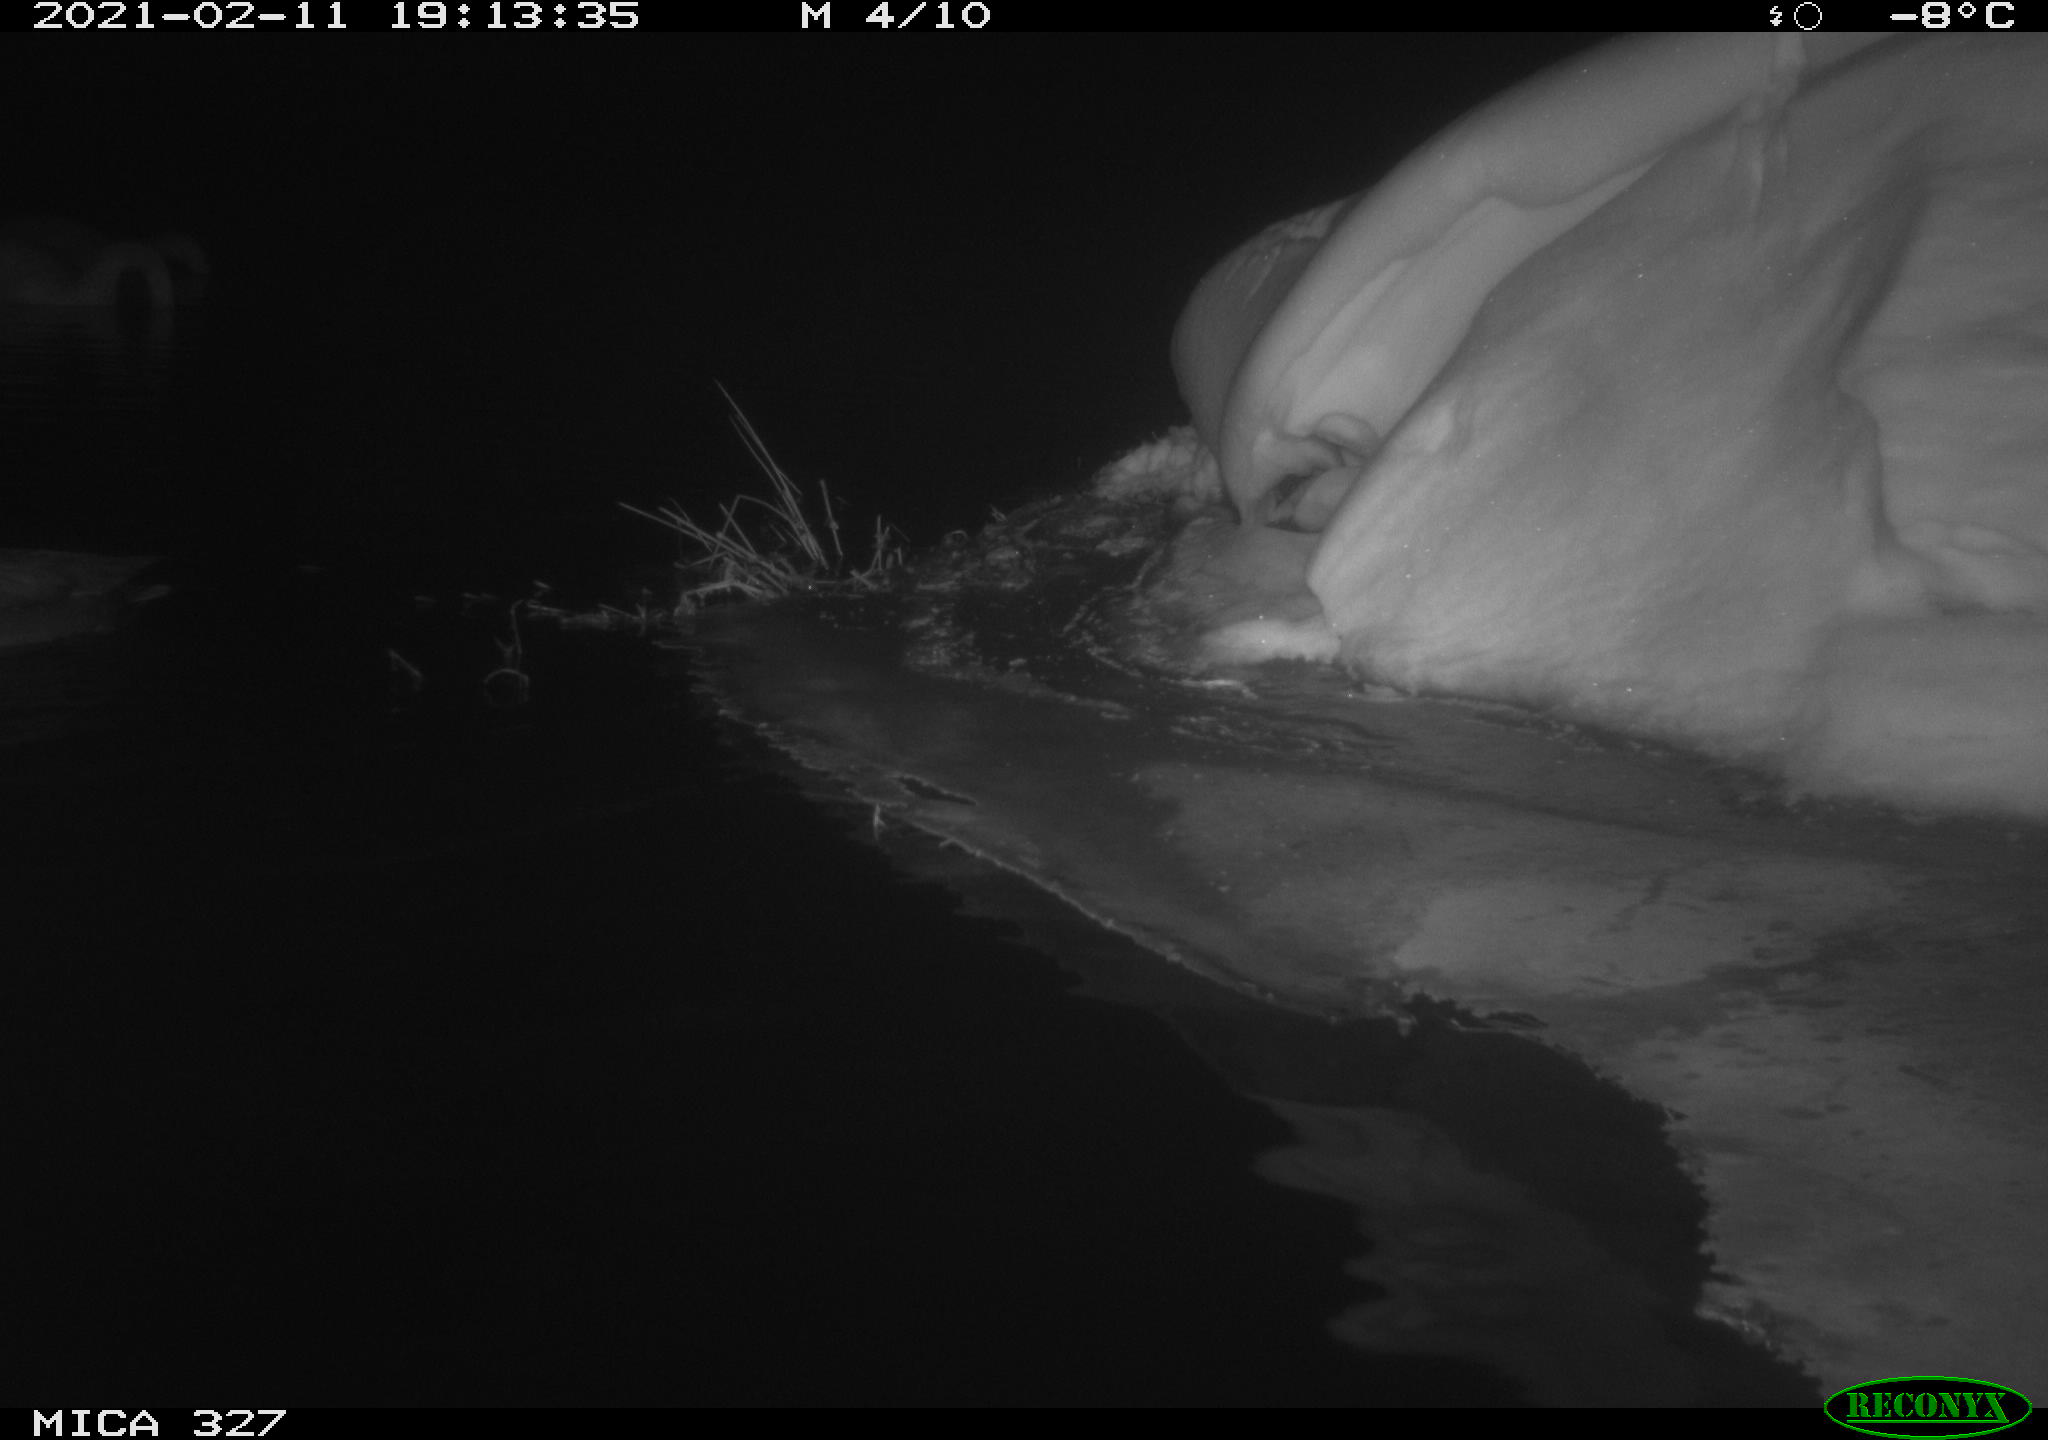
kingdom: Animalia
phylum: Chordata
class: Aves
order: Anseriformes
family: Anatidae
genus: Cygnus
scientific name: Cygnus olor
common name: Mute swan
